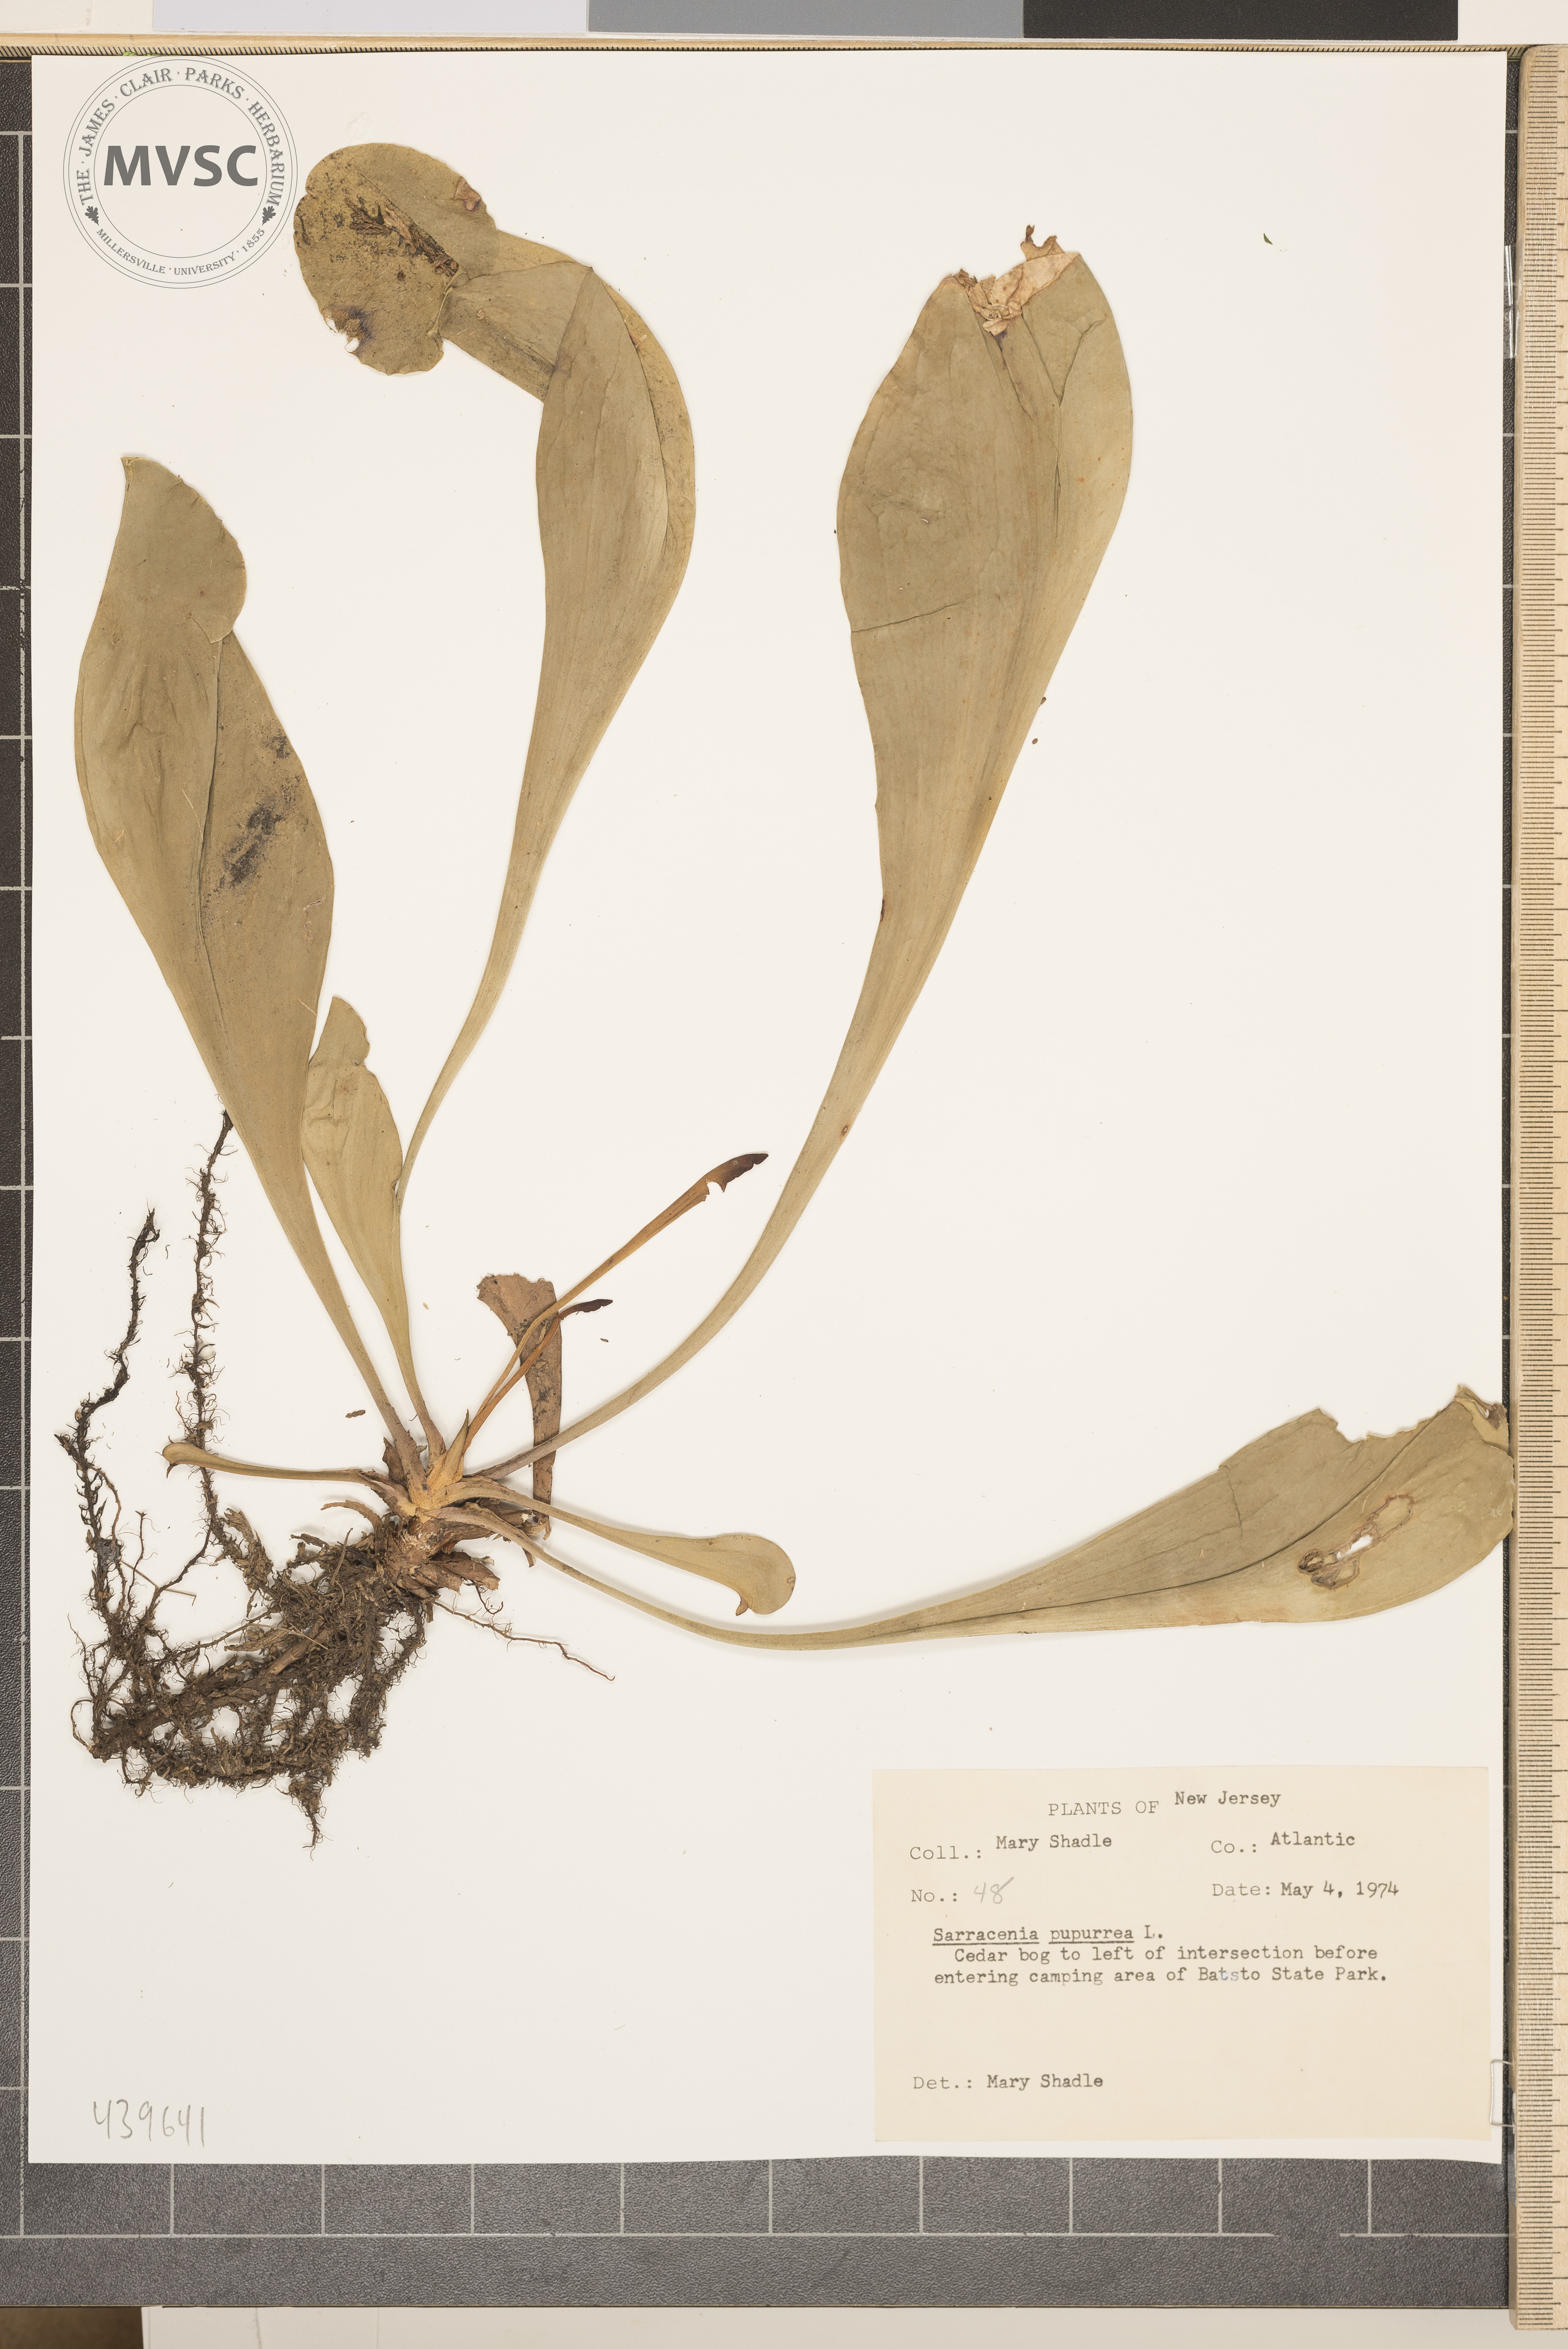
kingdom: Plantae
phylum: Tracheophyta
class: Magnoliopsida
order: Ericales
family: Sarraceniaceae
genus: Sarracenia
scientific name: Sarracenia purpurea
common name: Pitcherplant
